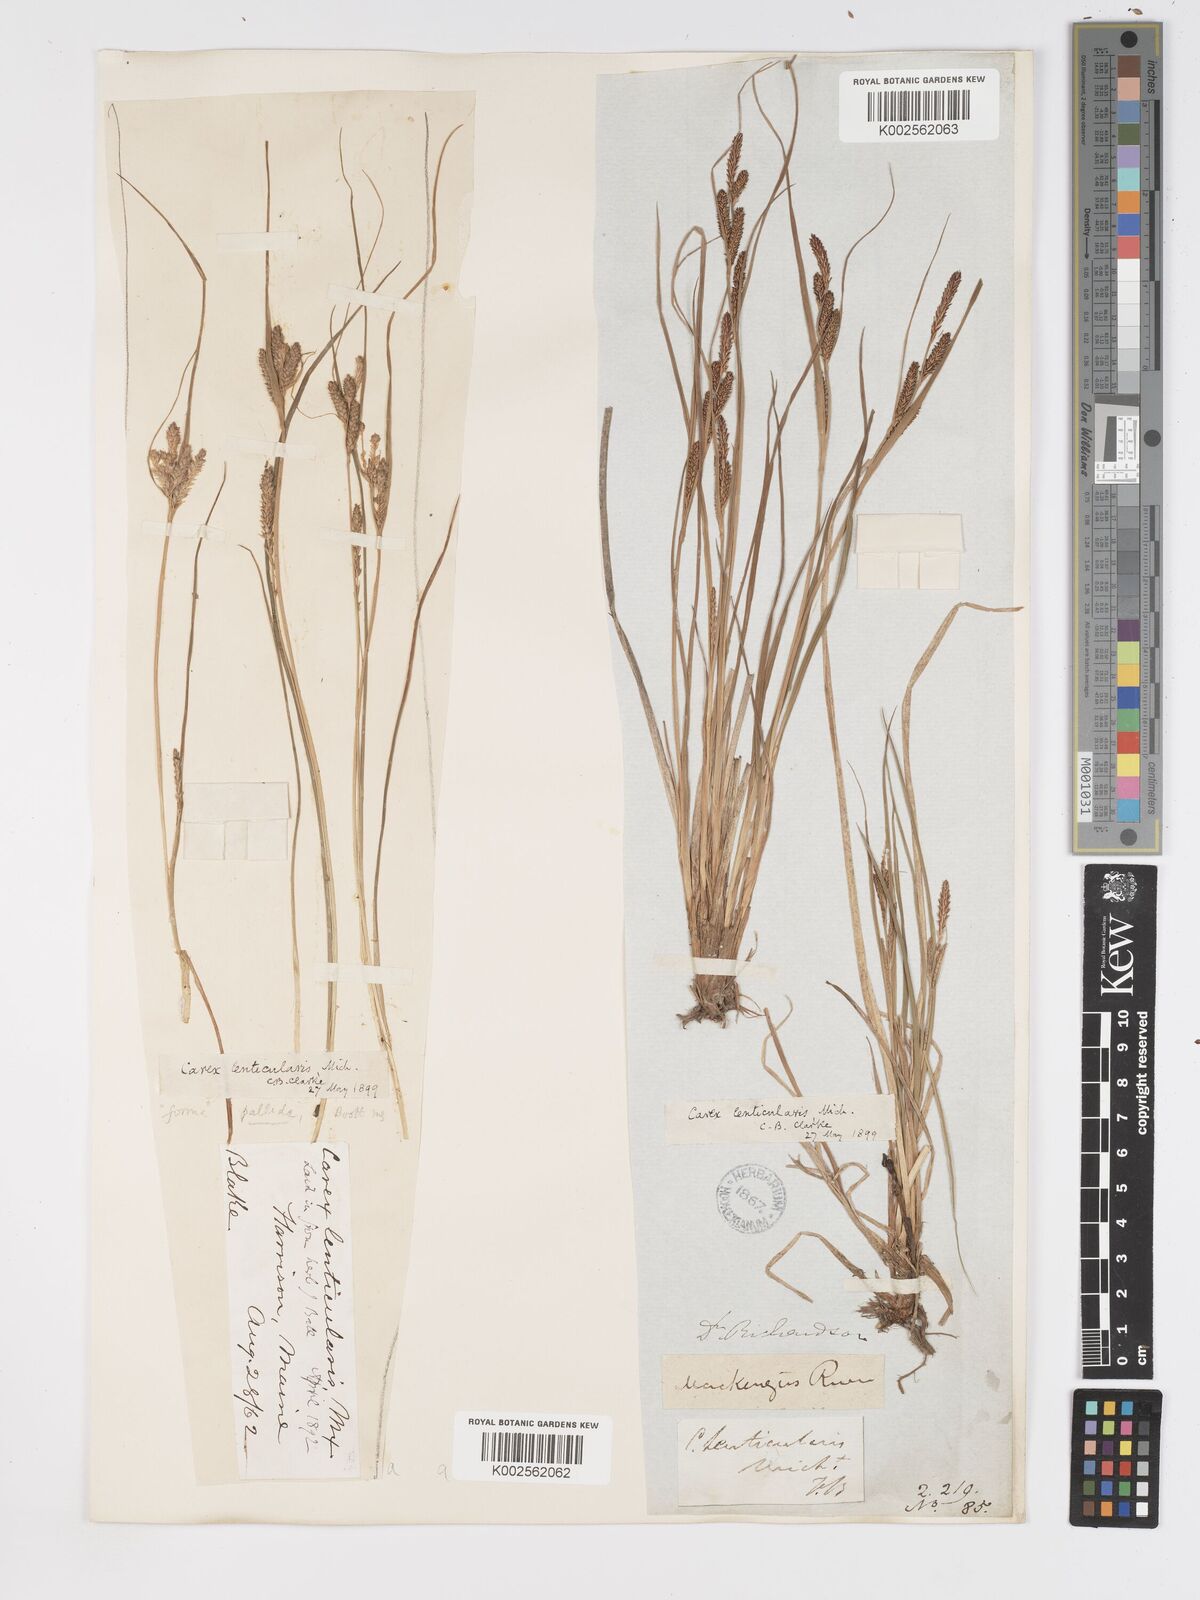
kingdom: Plantae
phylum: Tracheophyta
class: Liliopsida
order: Poales
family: Cyperaceae
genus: Carex
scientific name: Carex lenticularis
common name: Lakeshore sedge
